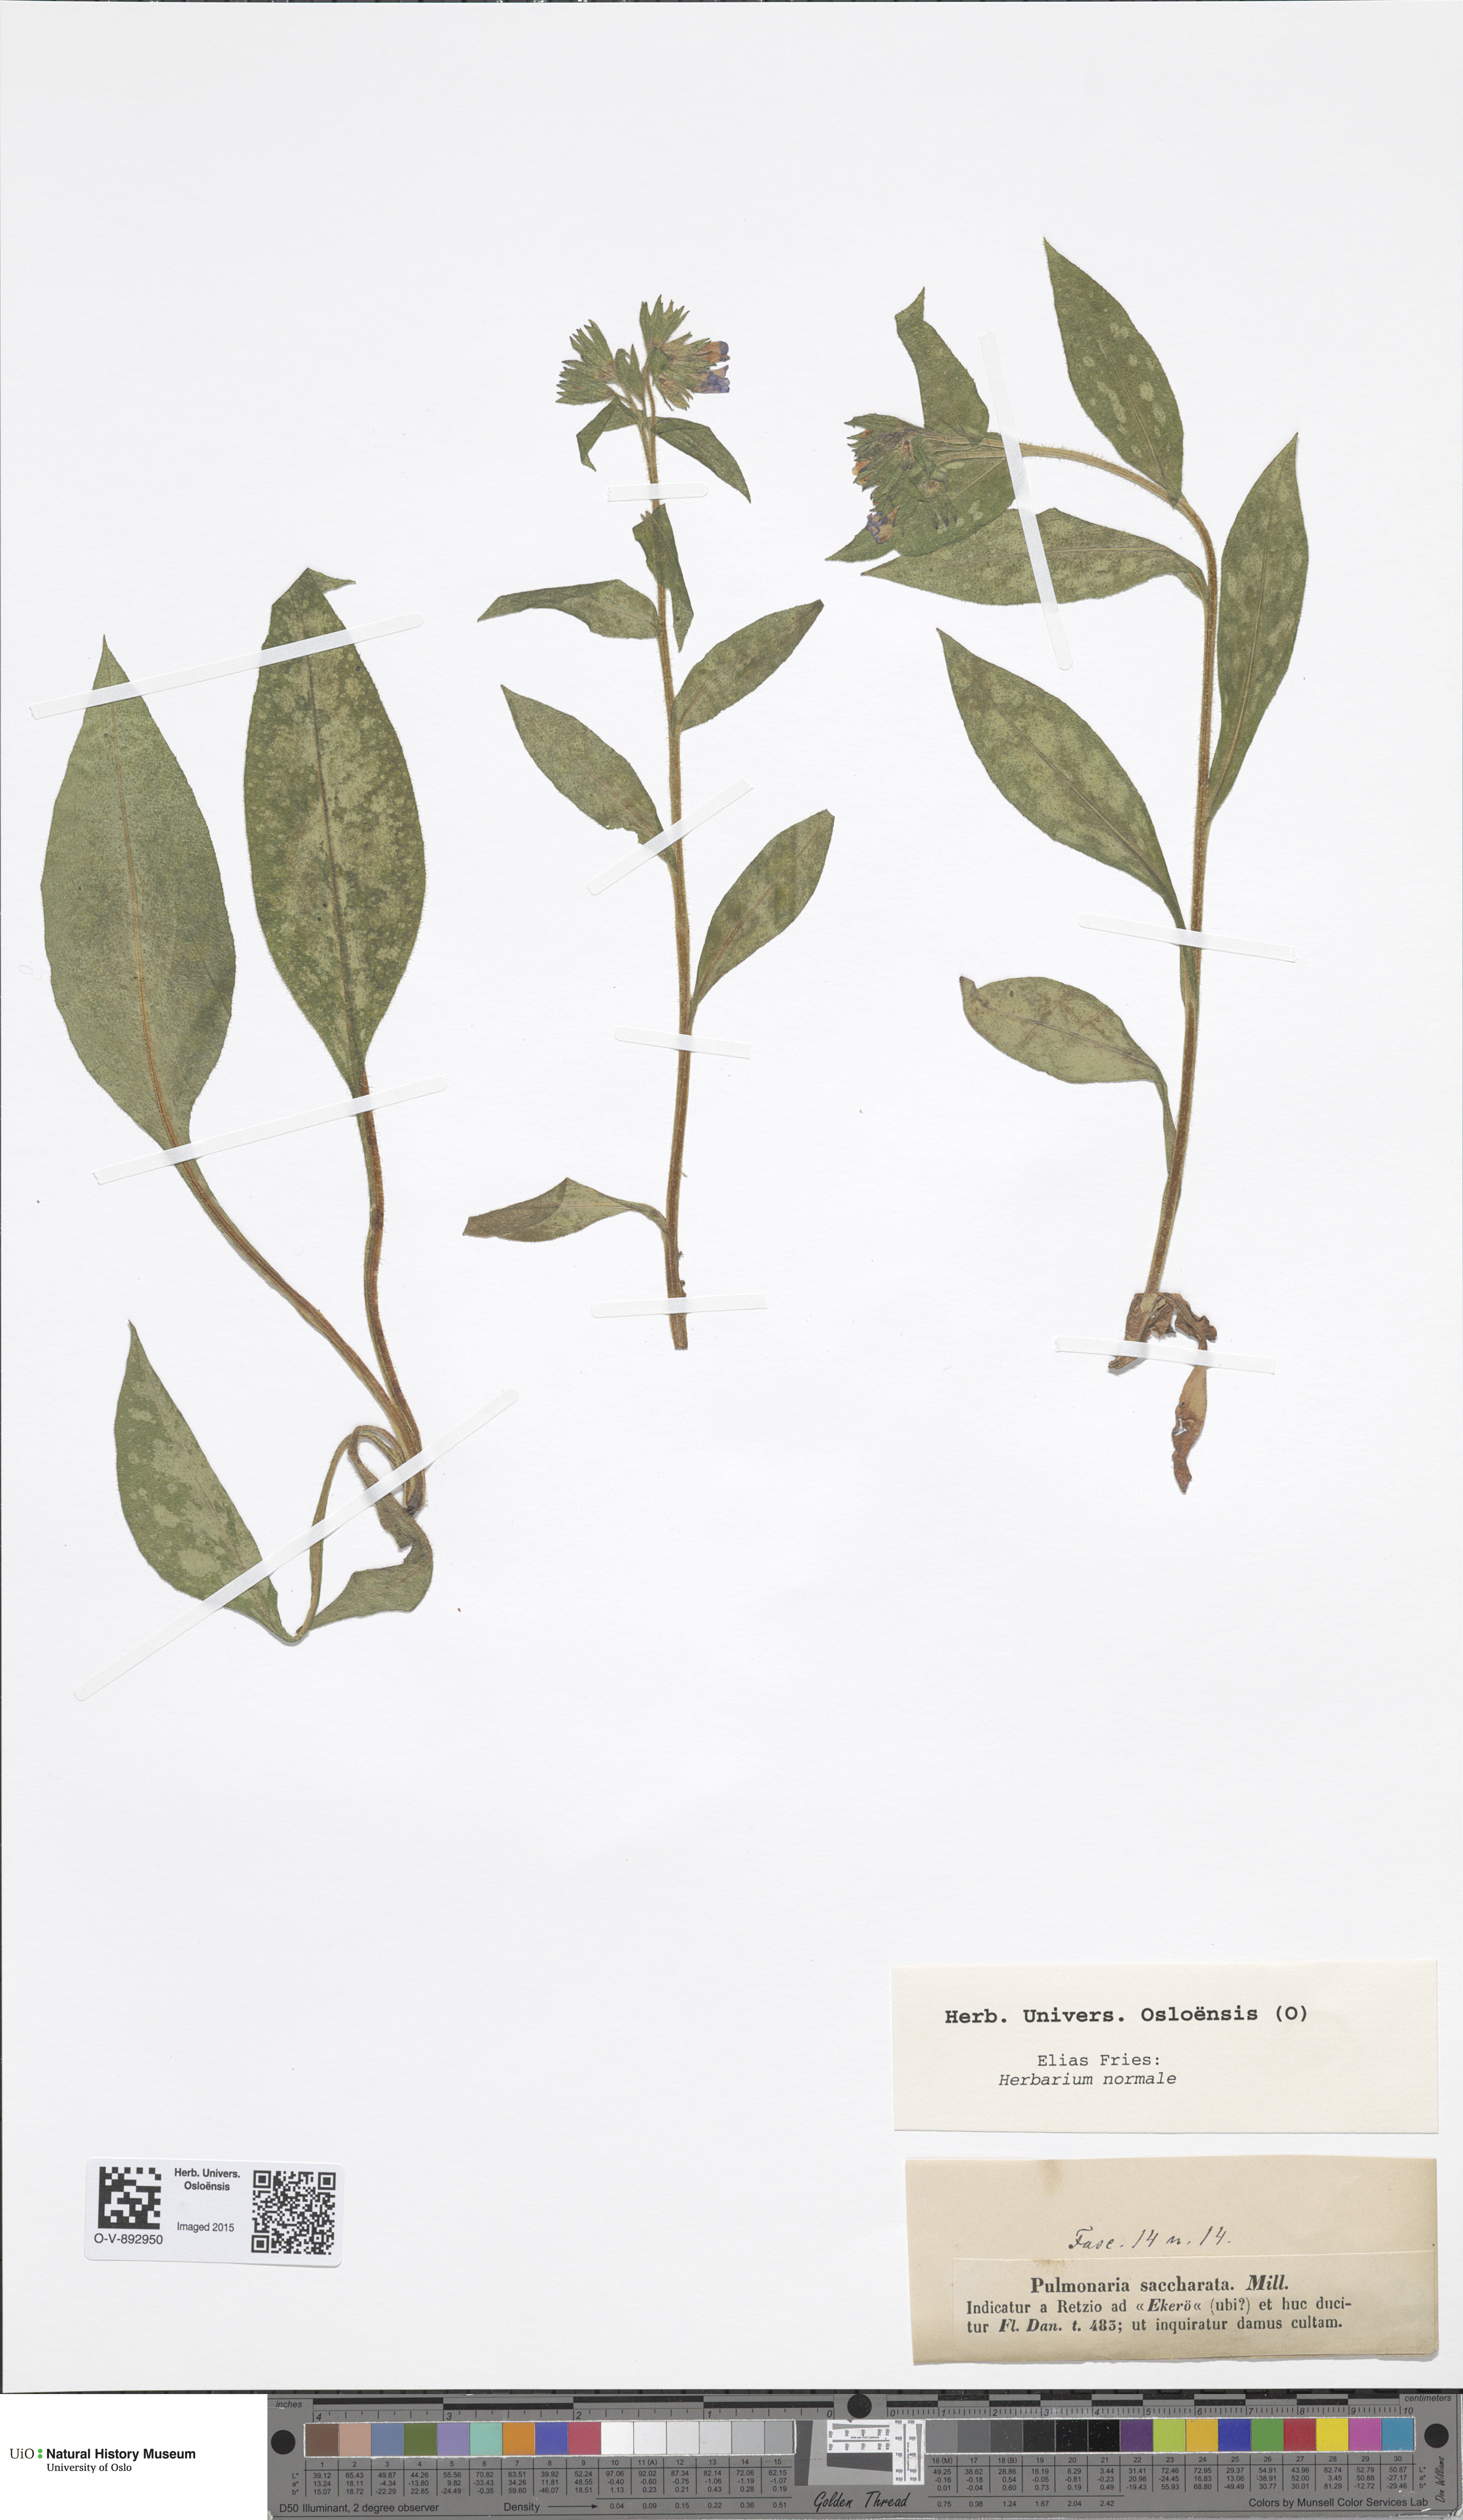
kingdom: Plantae
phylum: Tracheophyta
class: Magnoliopsida
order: Boraginales
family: Boraginaceae
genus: Pulmonaria
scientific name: Pulmonaria saccharata
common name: Bethlehem lungwort
